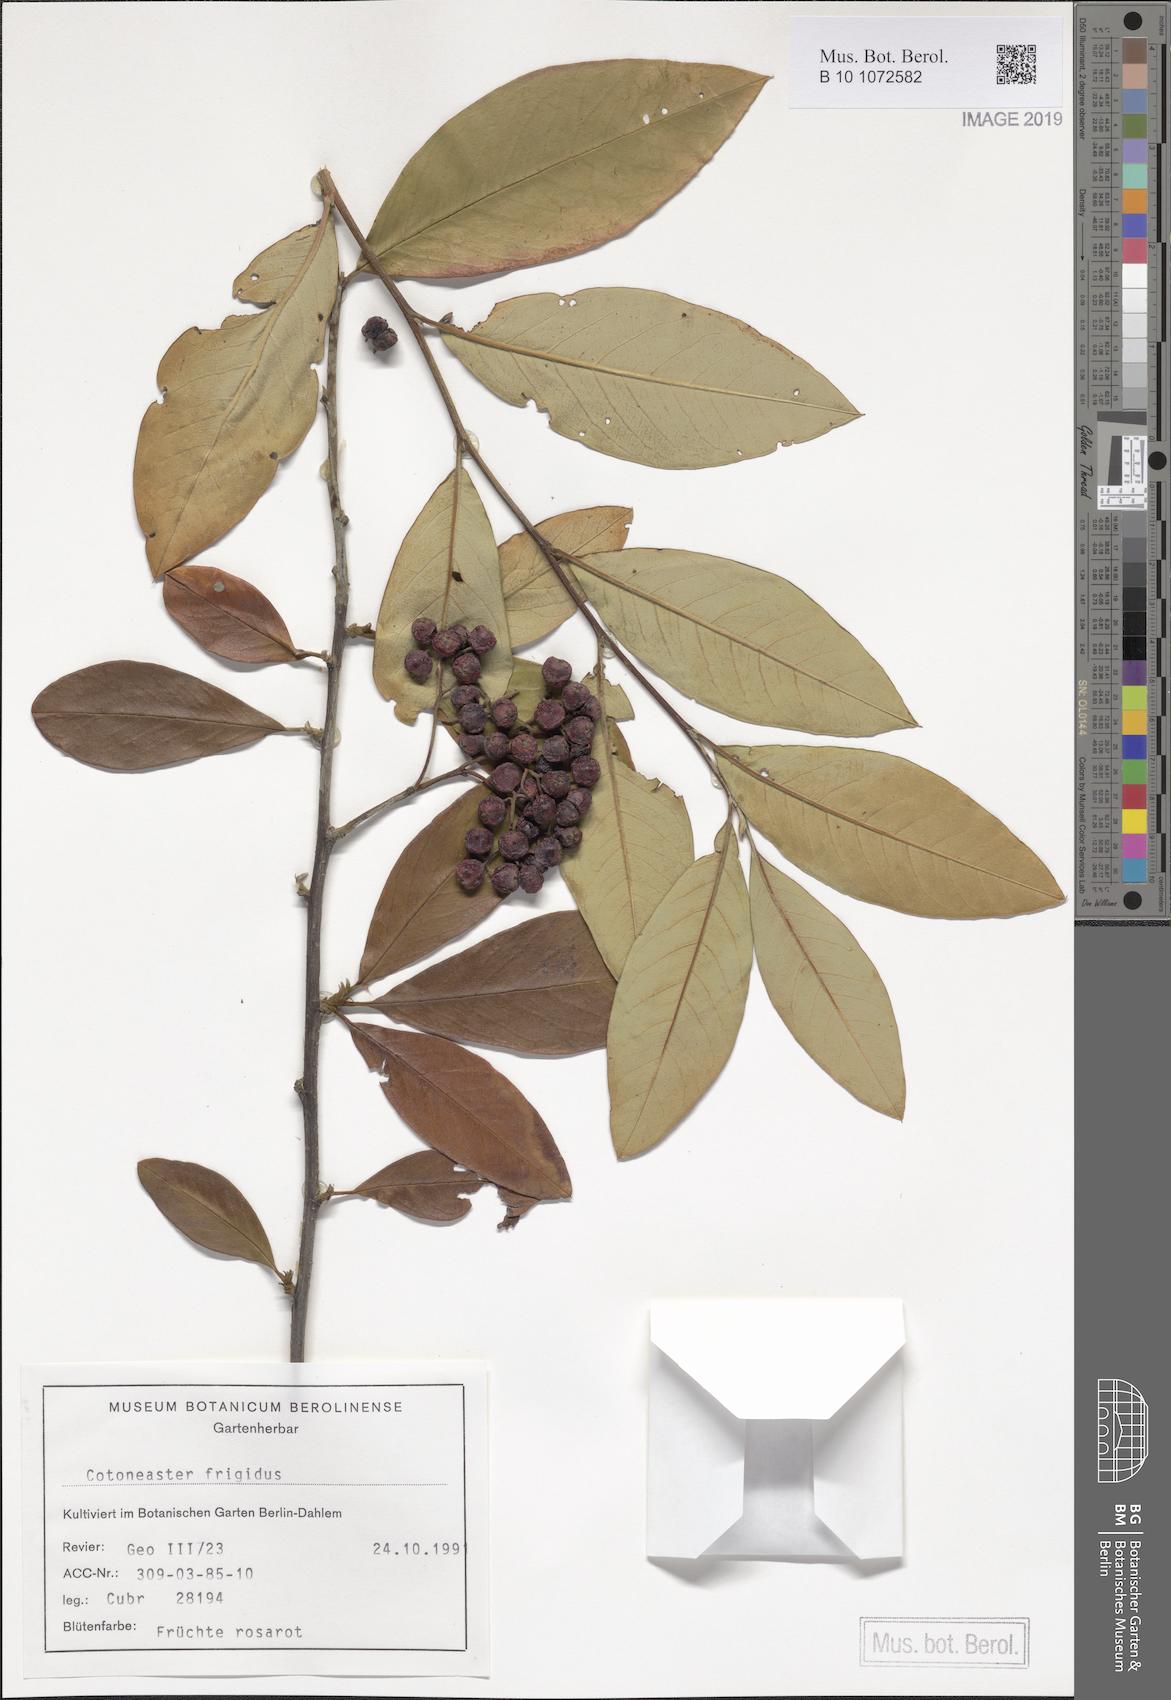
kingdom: Plantae
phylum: Tracheophyta
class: Magnoliopsida
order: Rosales
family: Rosaceae
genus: Cotoneaster
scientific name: Cotoneaster frigidus
